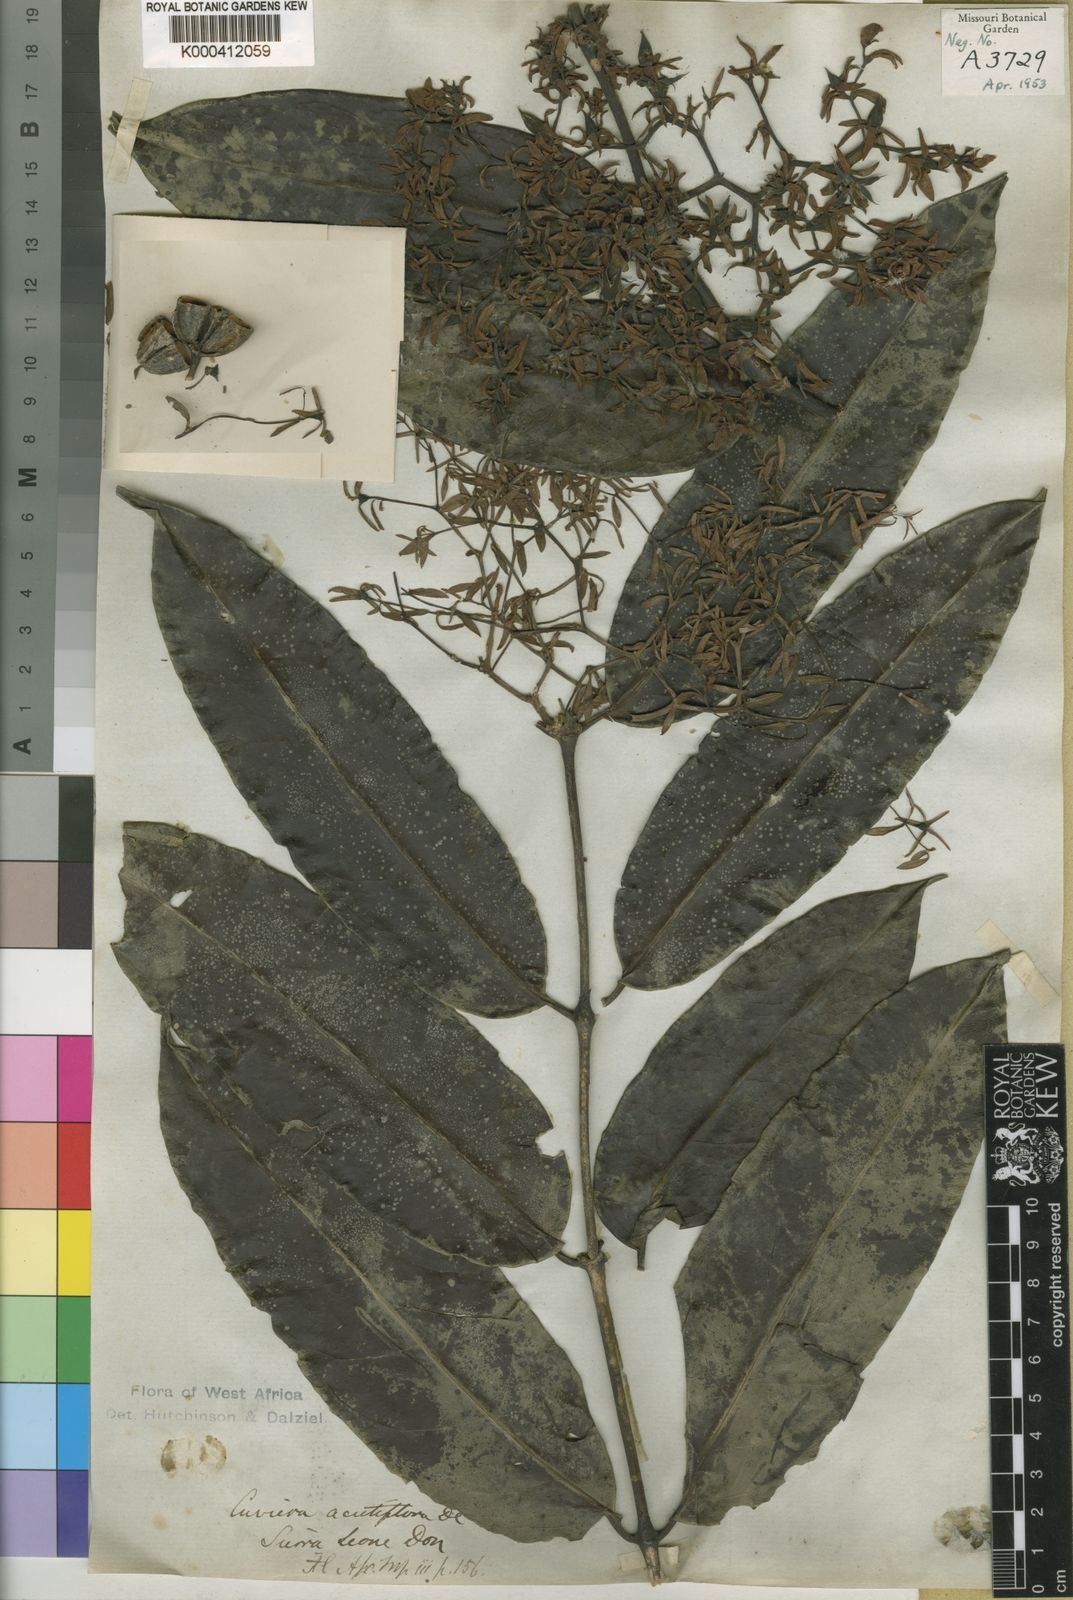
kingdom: Plantae
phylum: Tracheophyta
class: Magnoliopsida
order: Gentianales
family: Rubiaceae
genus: Cuviera
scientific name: Cuviera acutiflora
